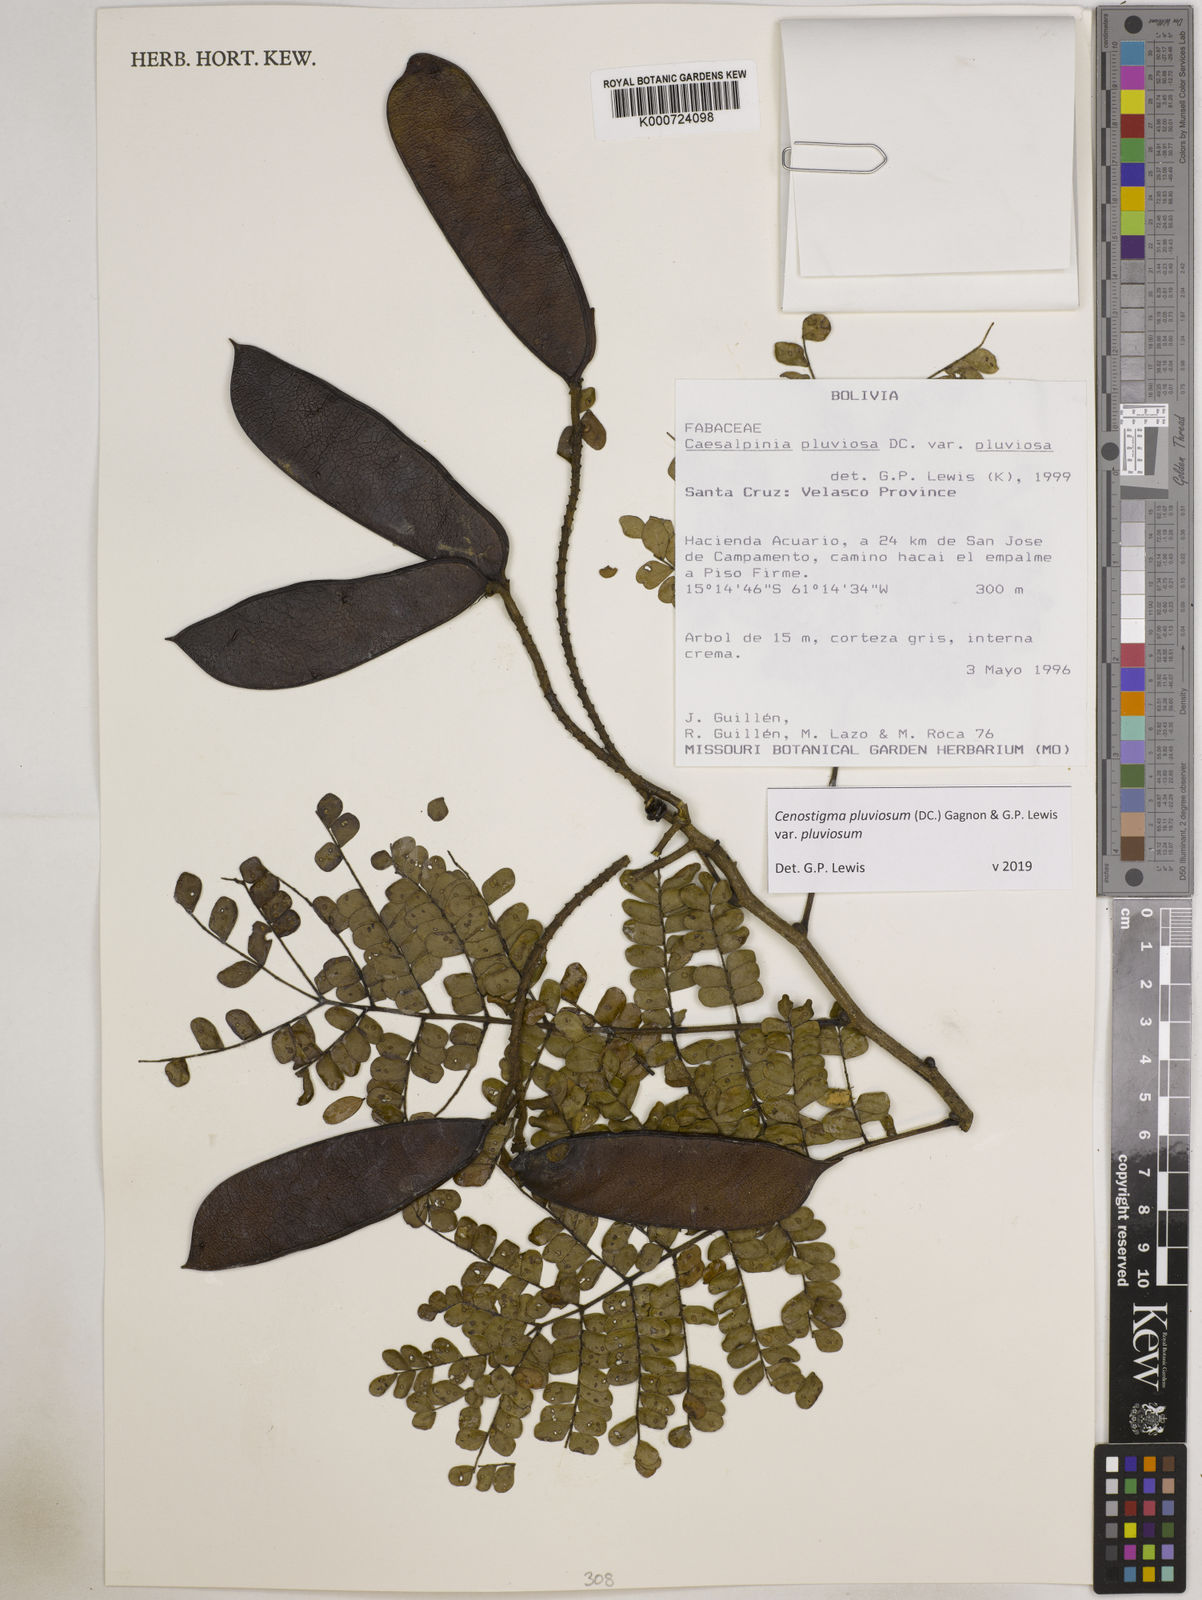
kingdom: Plantae
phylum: Tracheophyta
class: Magnoliopsida
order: Fabales
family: Fabaceae
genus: Cenostigma
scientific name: Cenostigma pluviosum
